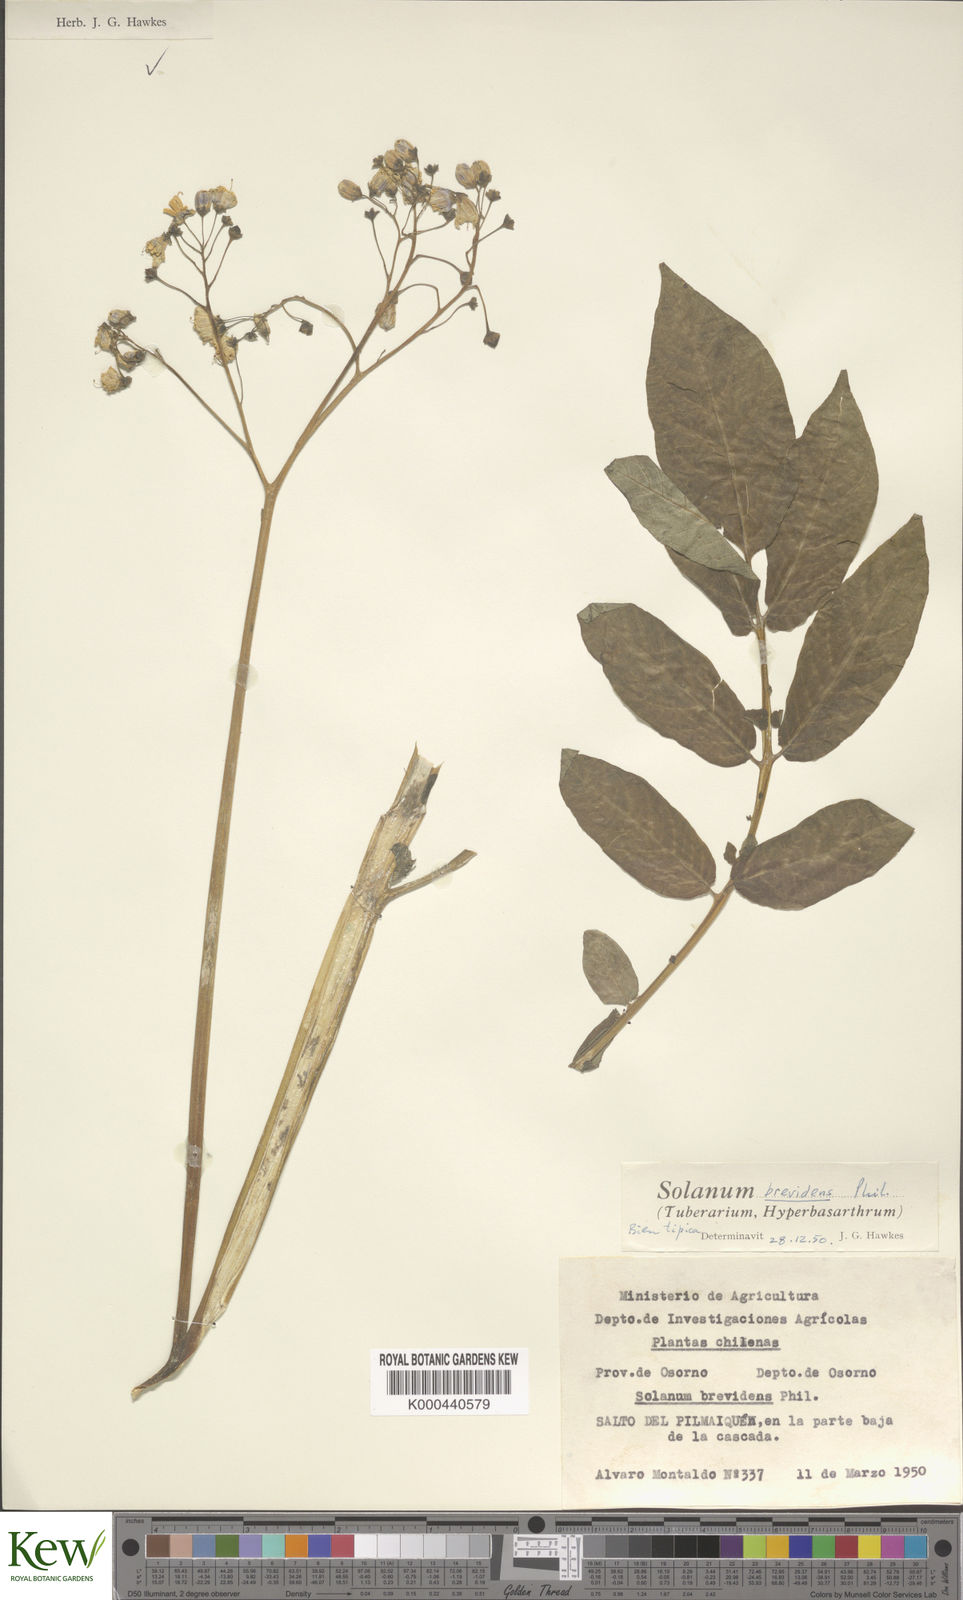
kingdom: Plantae
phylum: Tracheophyta
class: Magnoliopsida
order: Solanales
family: Solanaceae
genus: Solanum
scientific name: Solanum palustre
